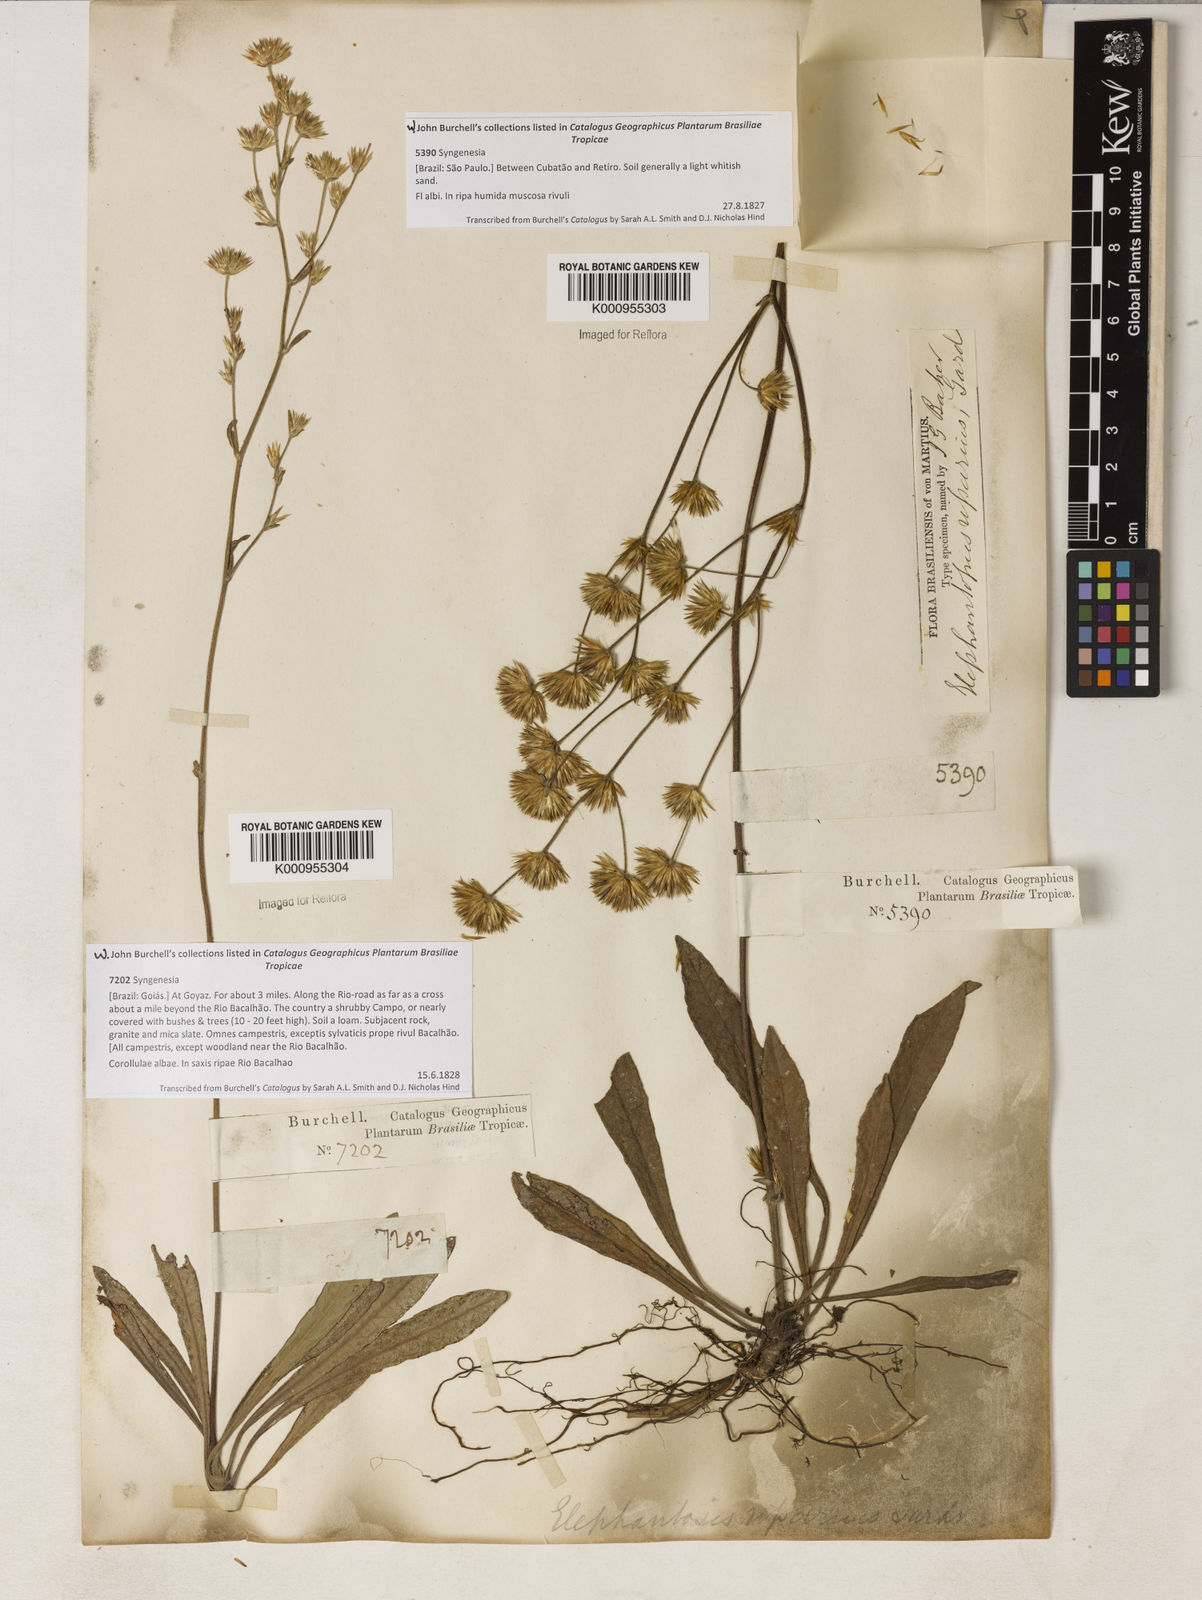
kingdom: Plantae
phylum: Tracheophyta
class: Magnoliopsida
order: Asterales
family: Asteraceae
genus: Elephantopus
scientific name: Elephantopus riparius
